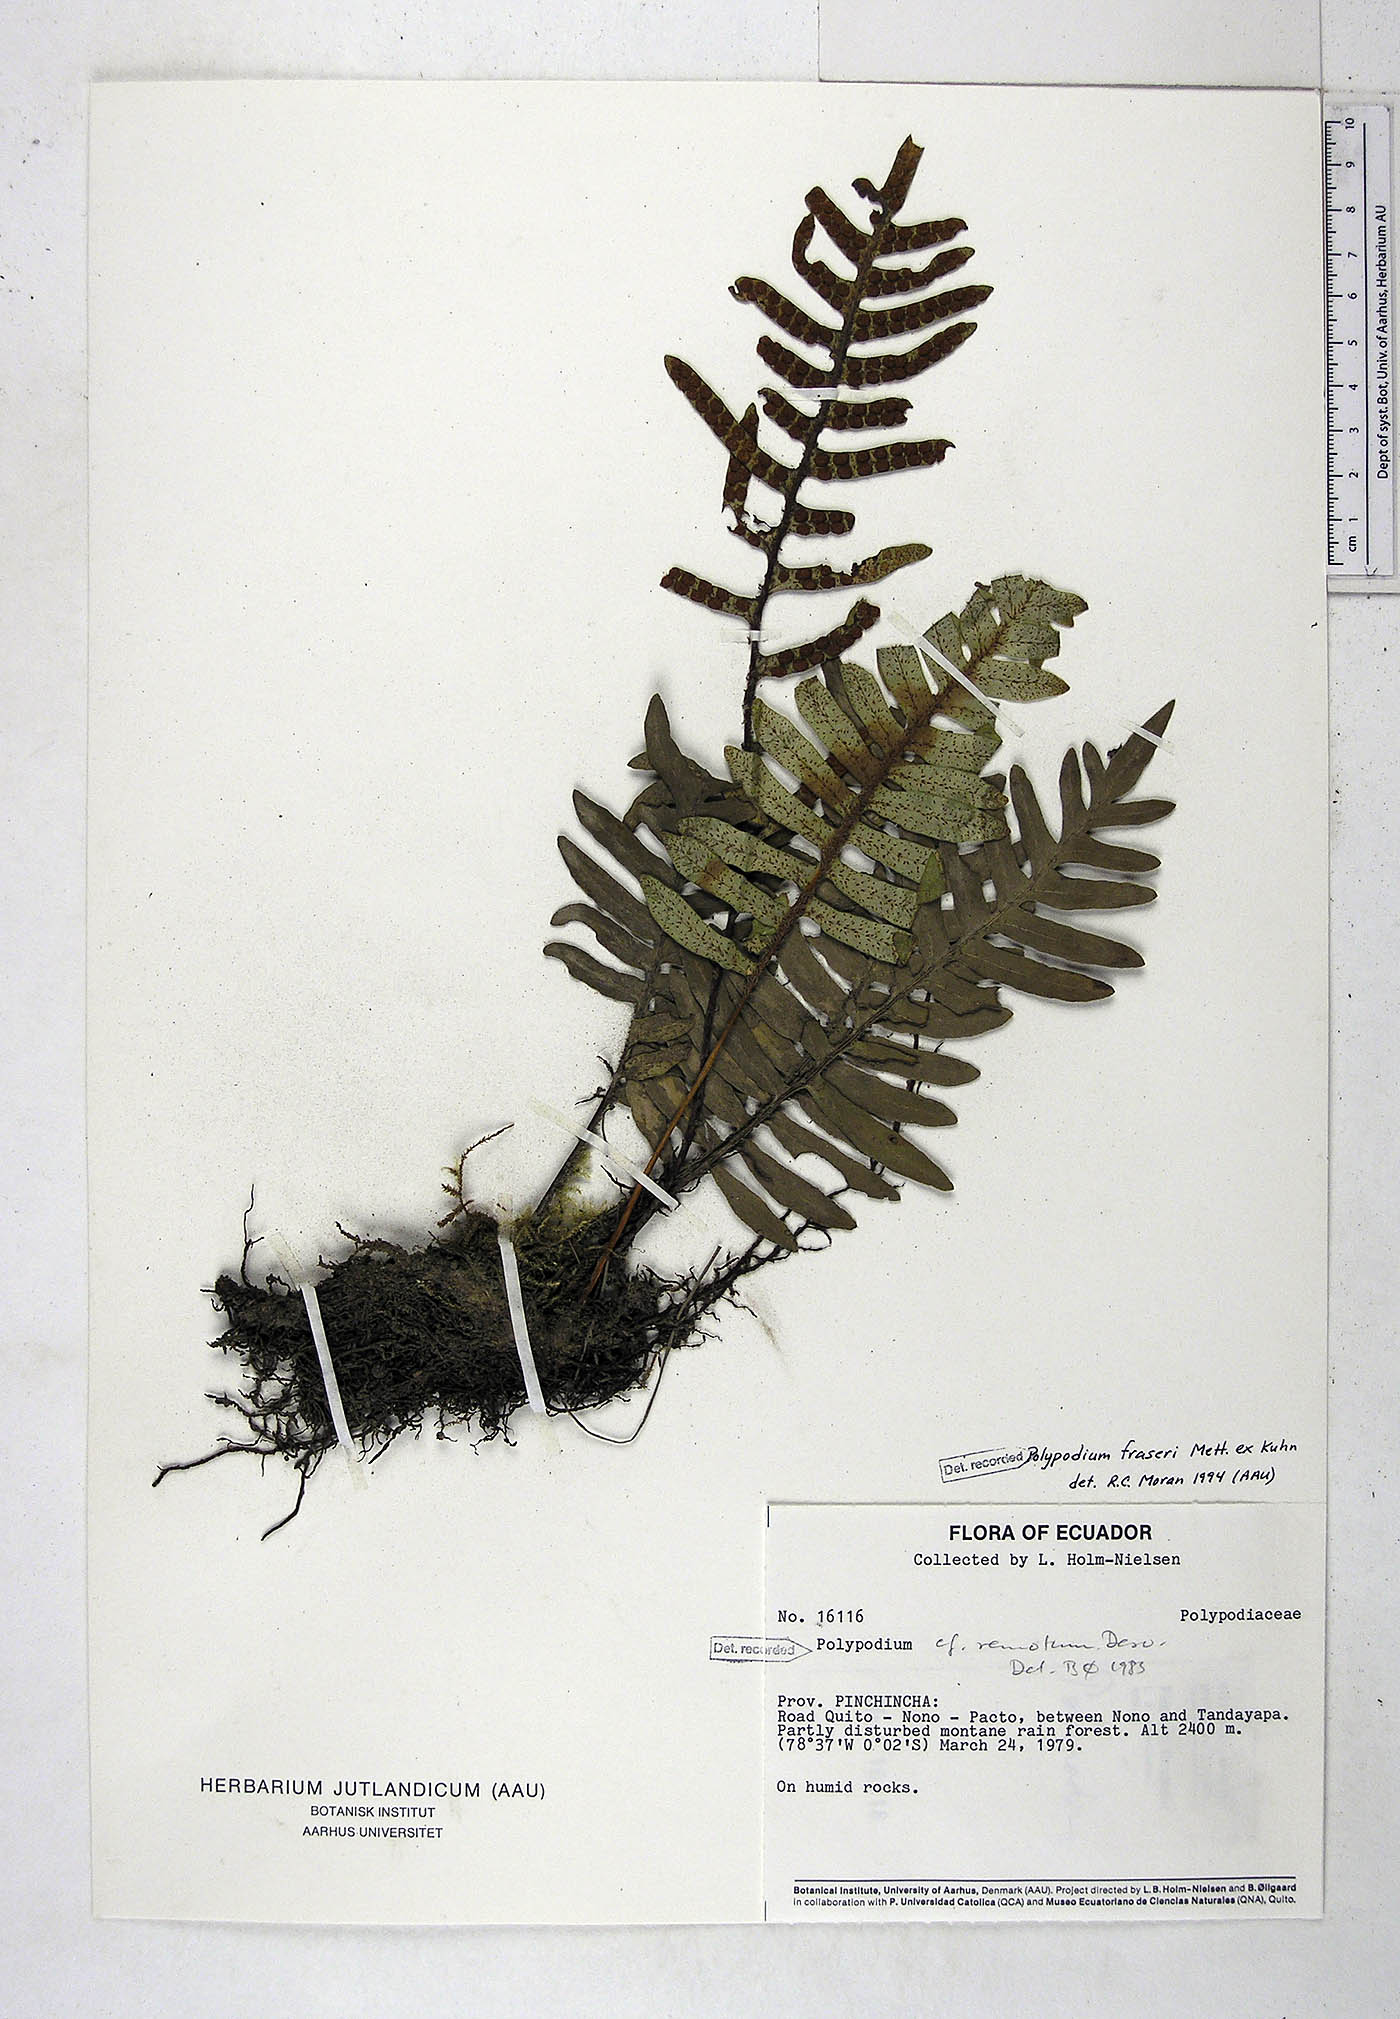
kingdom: Plantae
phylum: Tracheophyta
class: Polypodiopsida
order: Polypodiales
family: Polypodiaceae
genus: Pleopeltis
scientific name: Pleopeltis fraseri
